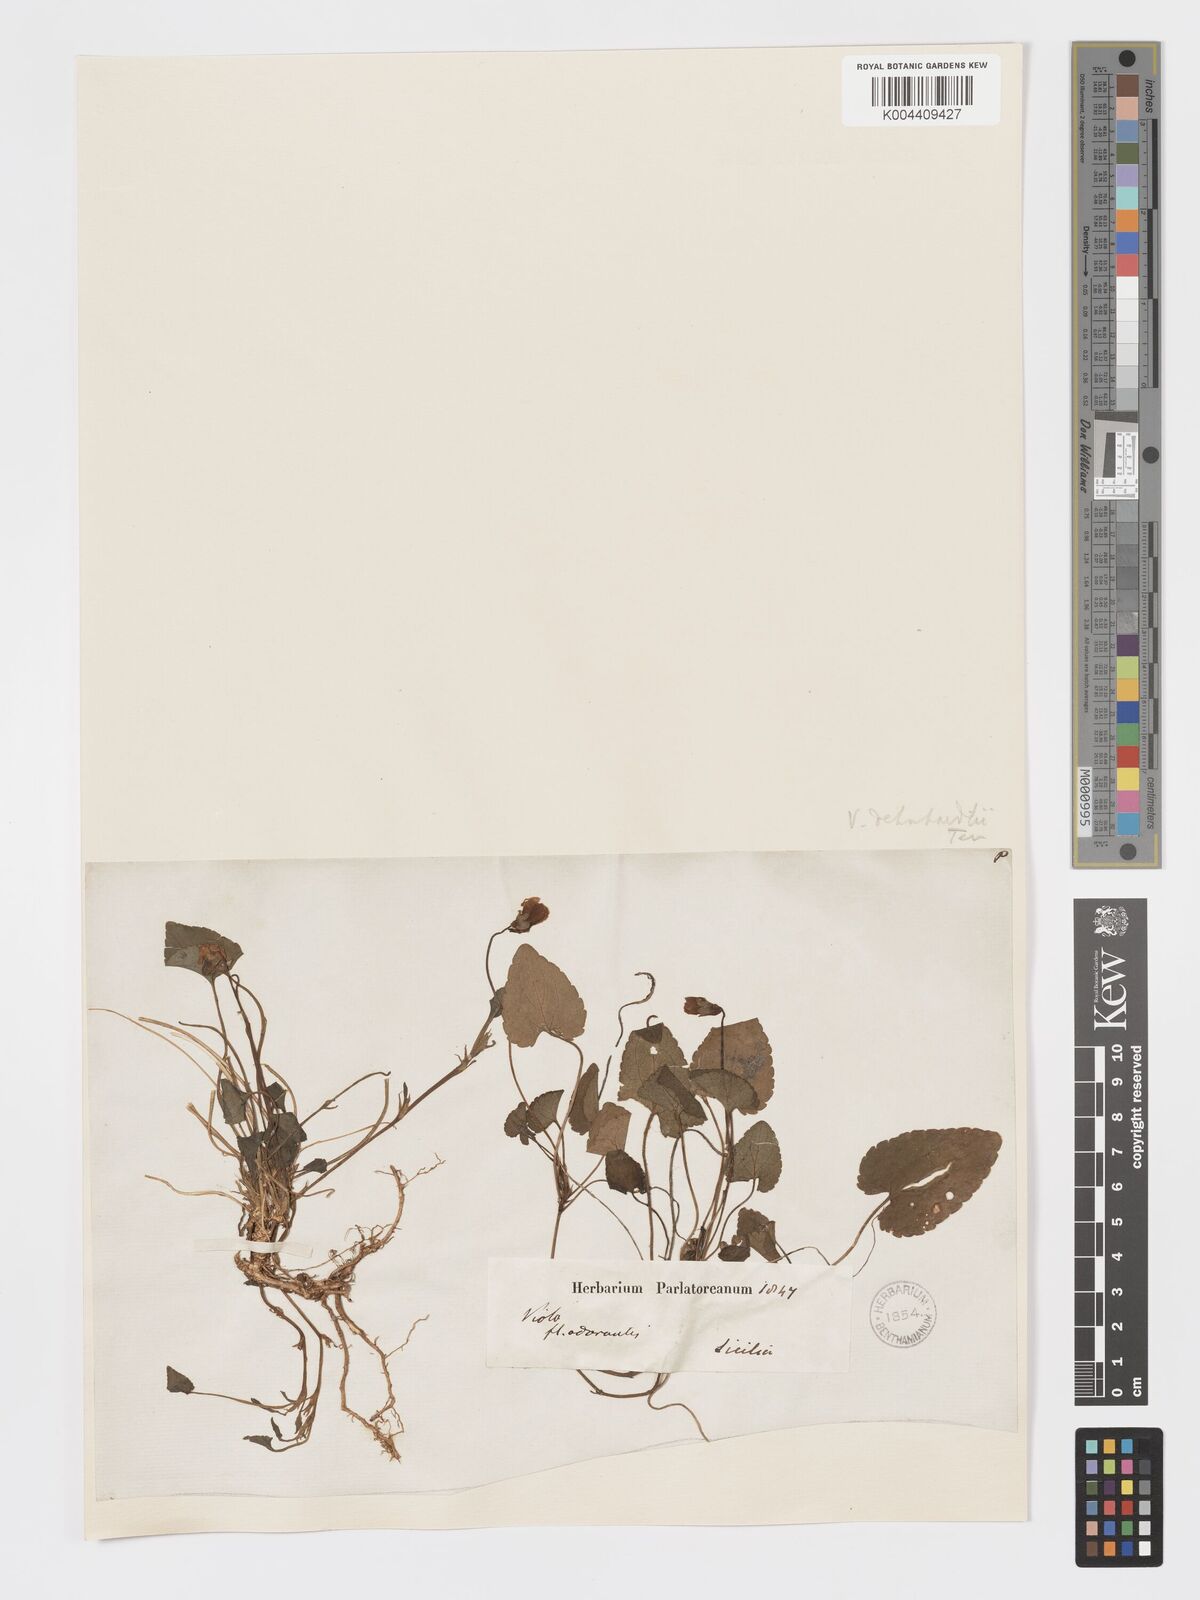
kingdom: Plantae
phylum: Tracheophyta
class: Magnoliopsida
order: Malpighiales
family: Violaceae
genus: Viola
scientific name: Viola alba
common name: White violet
